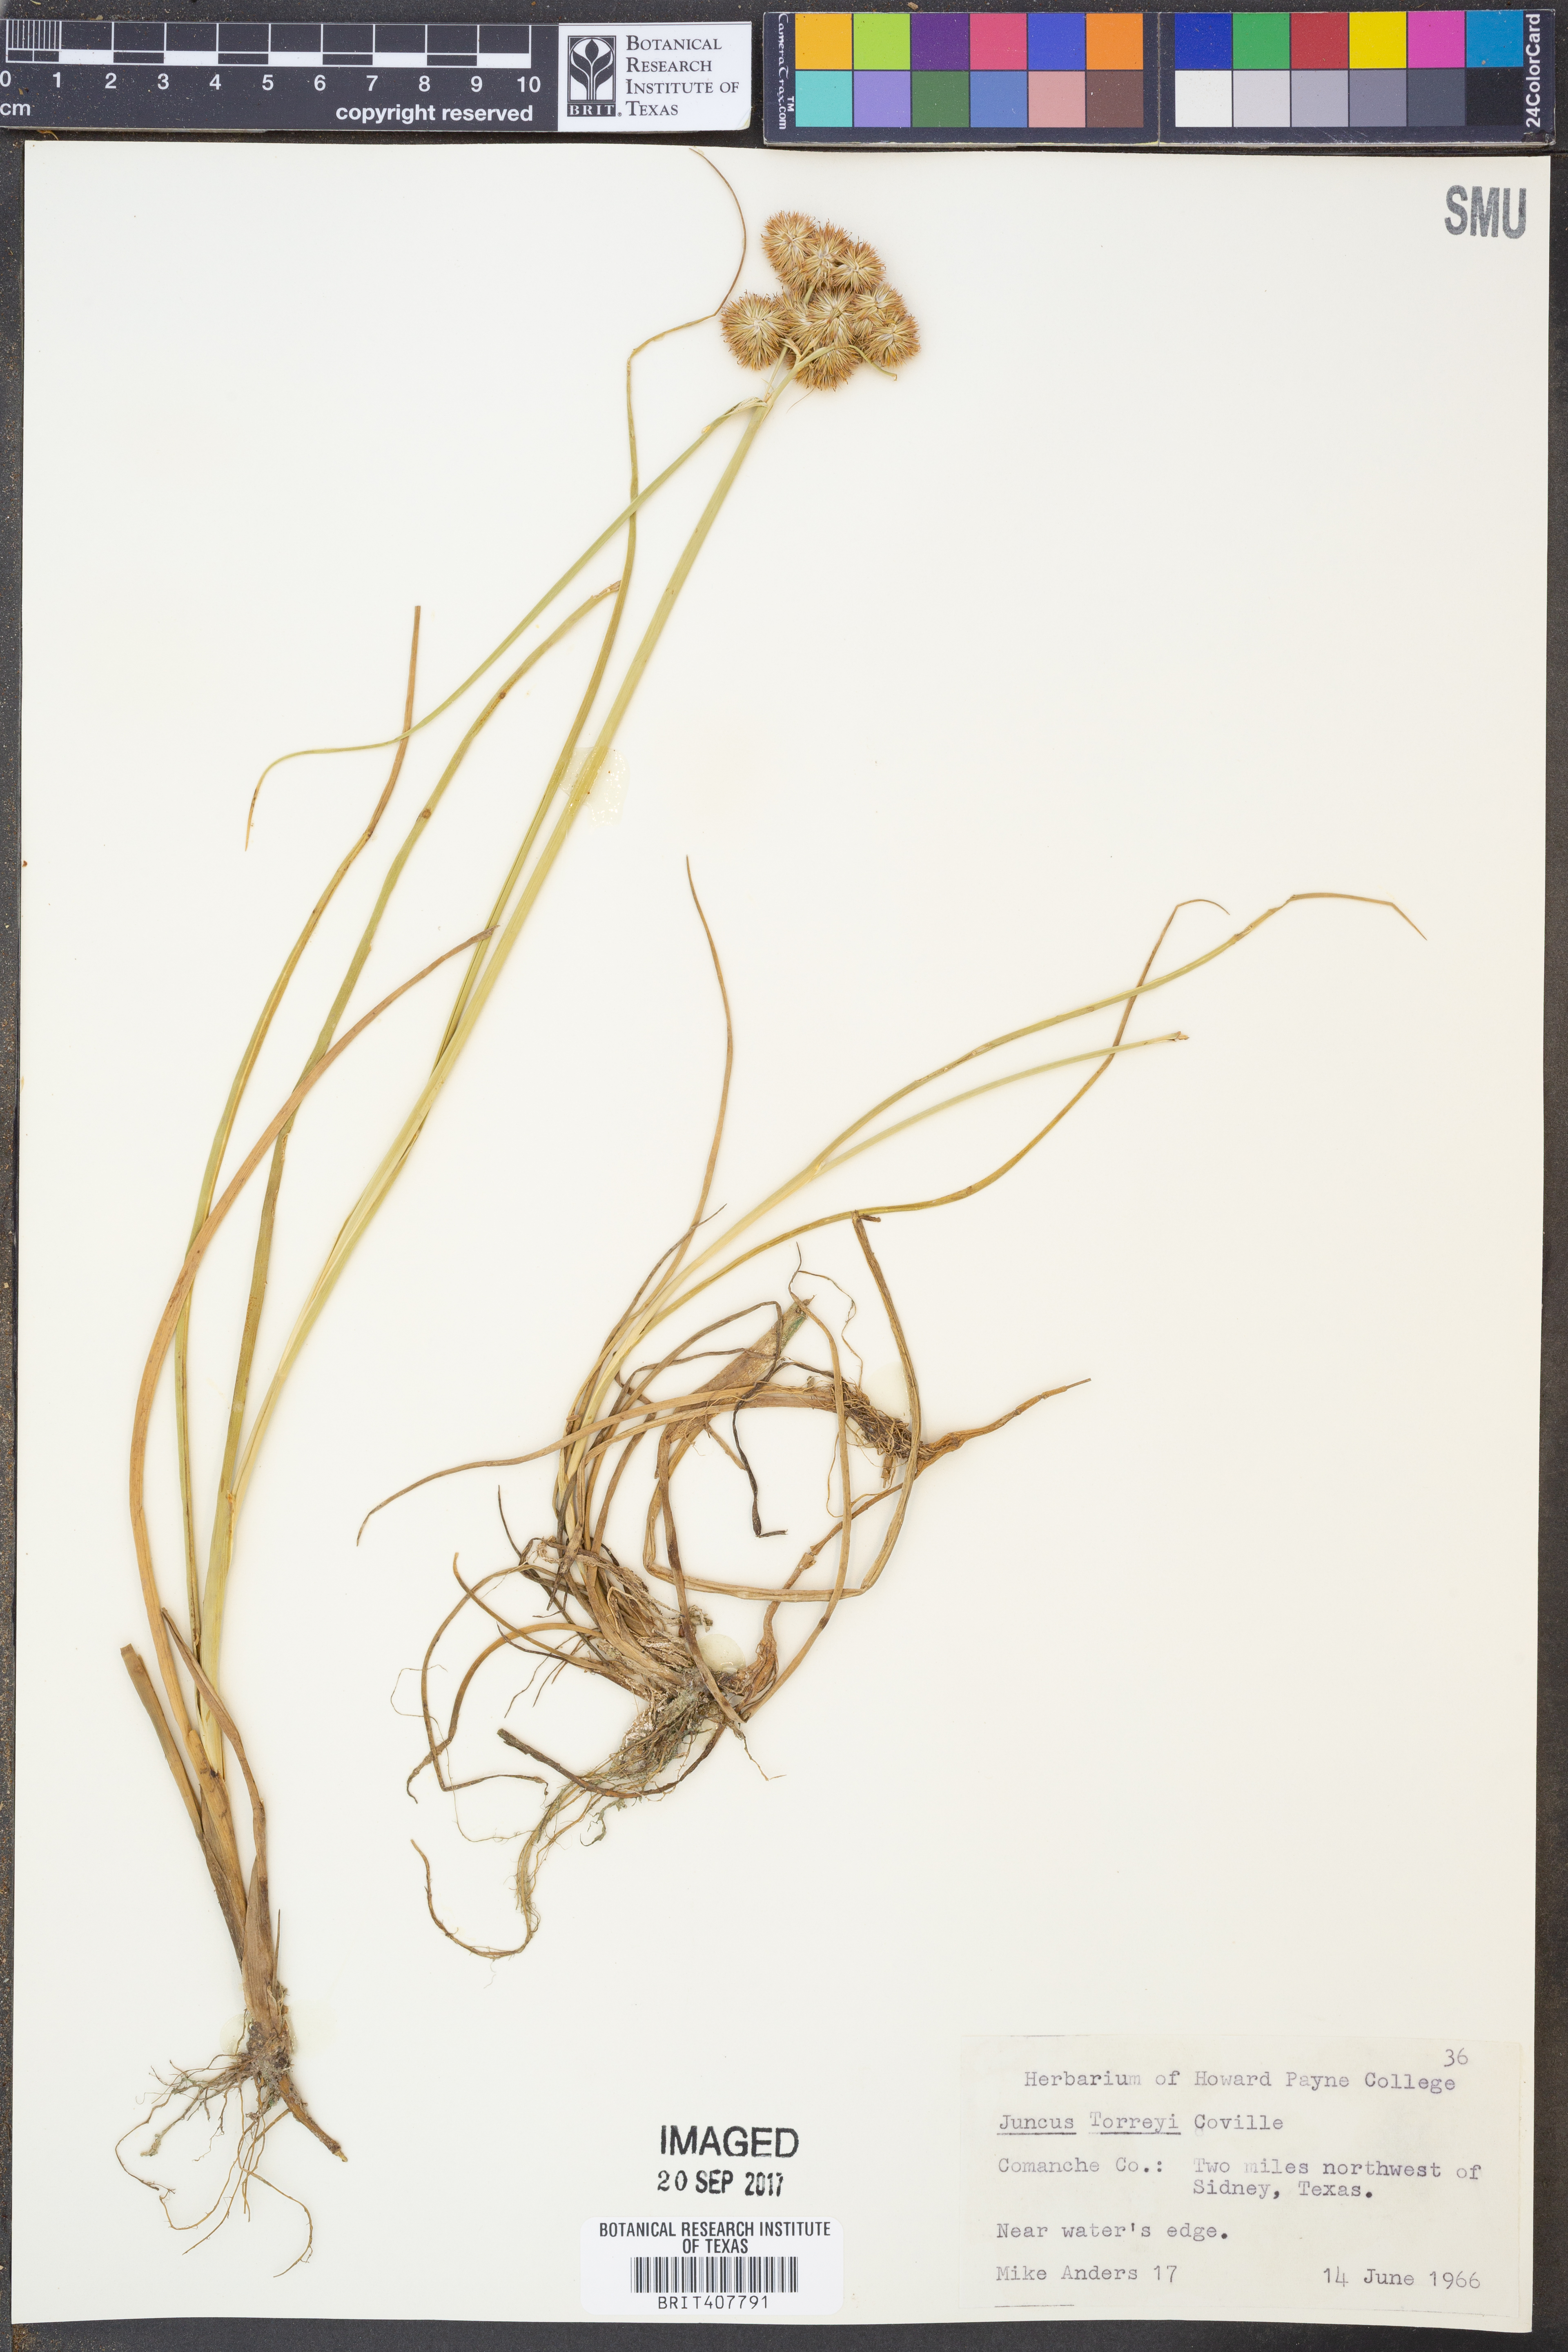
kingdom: Plantae
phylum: Tracheophyta
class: Liliopsida
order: Poales
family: Juncaceae
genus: Juncus
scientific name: Juncus torreyi
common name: Torrey's rush
